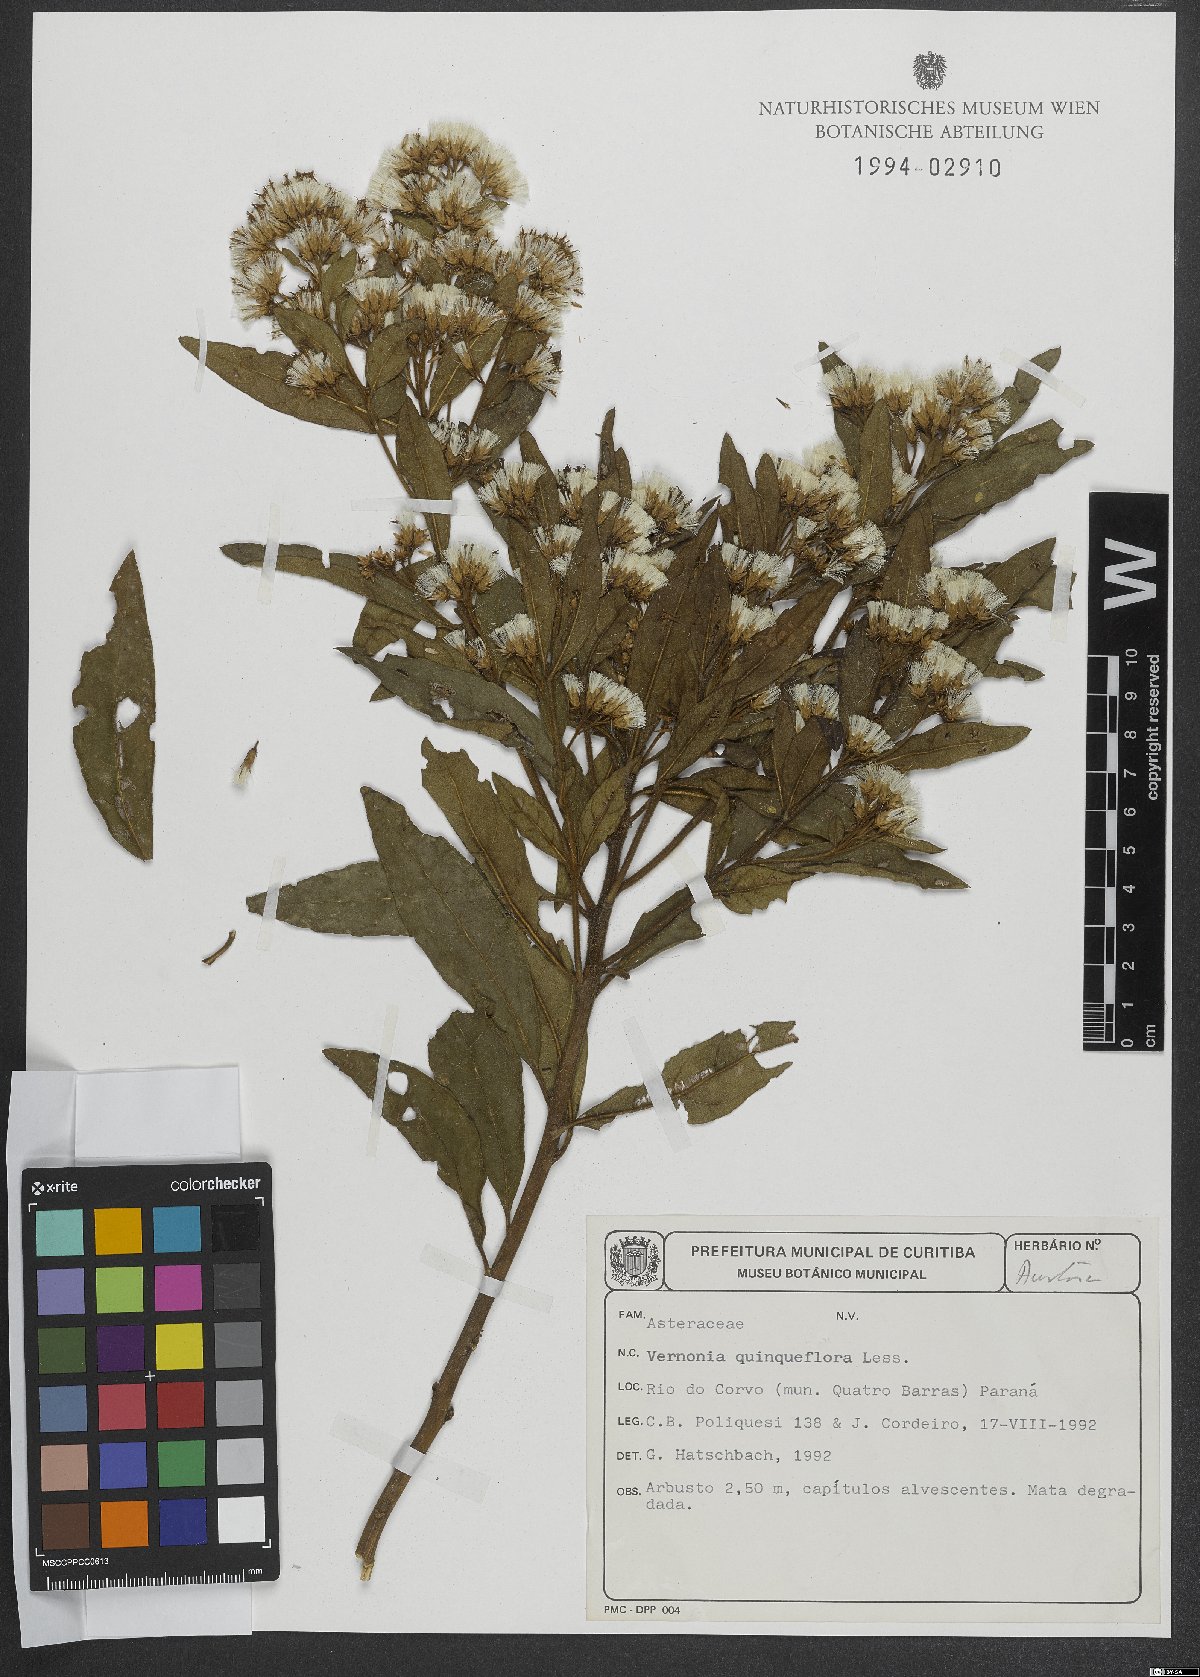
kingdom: Plantae
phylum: Tracheophyta
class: Magnoliopsida
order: Asterales
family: Asteraceae
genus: Critoniopsis
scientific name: Critoniopsis quinqueflora
